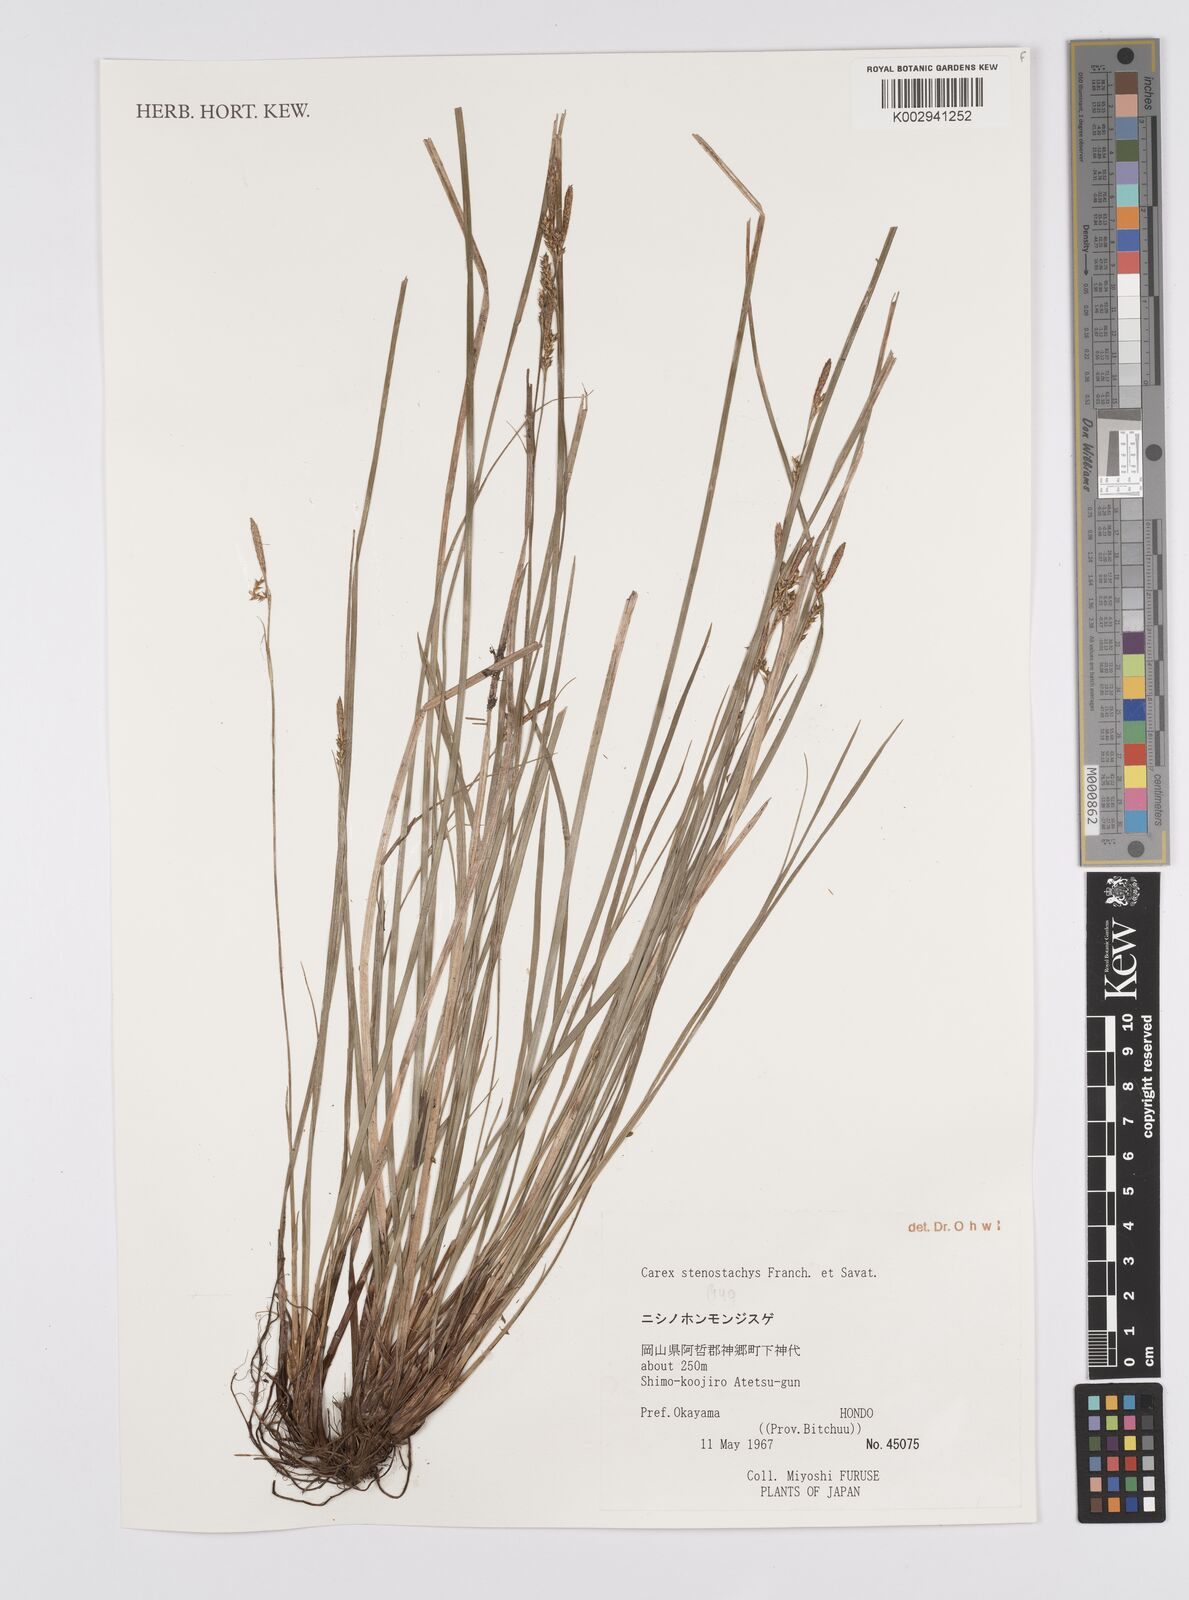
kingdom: Plantae
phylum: Tracheophyta
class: Liliopsida
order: Poales
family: Cyperaceae
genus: Carex
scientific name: Carex pisiformis
